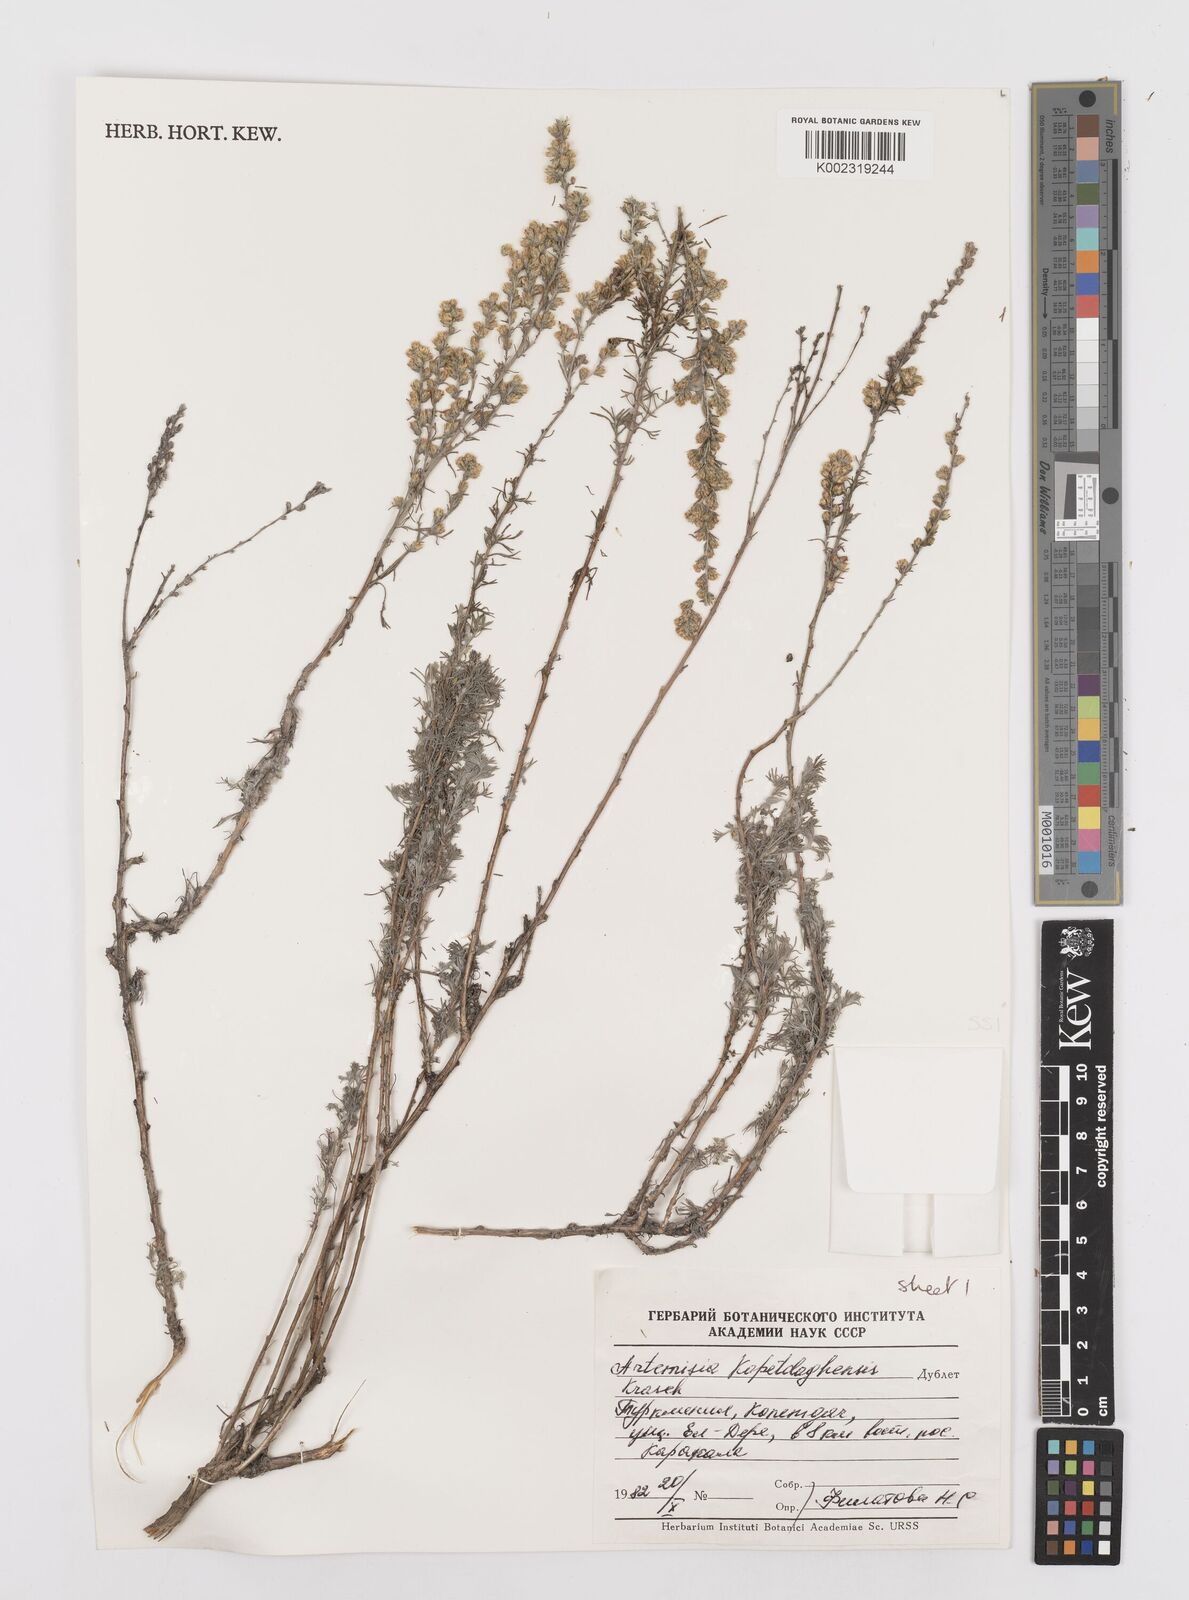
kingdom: Plantae
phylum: Tracheophyta
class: Magnoliopsida
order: Asterales
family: Asteraceae
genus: Turaniphytum
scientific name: Turaniphytum codringtonii
